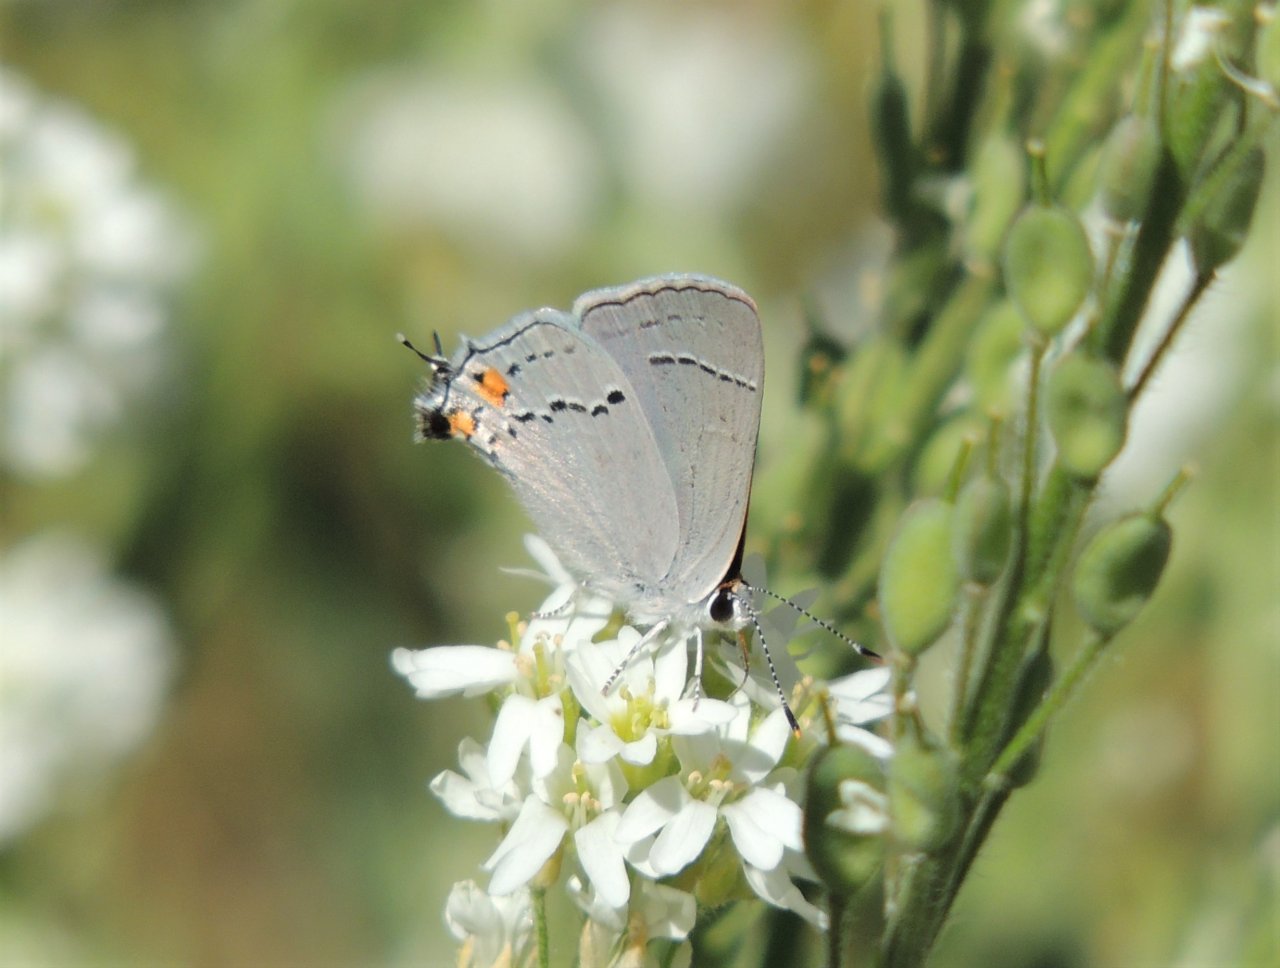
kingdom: Animalia
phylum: Arthropoda
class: Insecta
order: Lepidoptera
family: Lycaenidae
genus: Strymon
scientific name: Strymon melinus
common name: Gray Hairstreak
